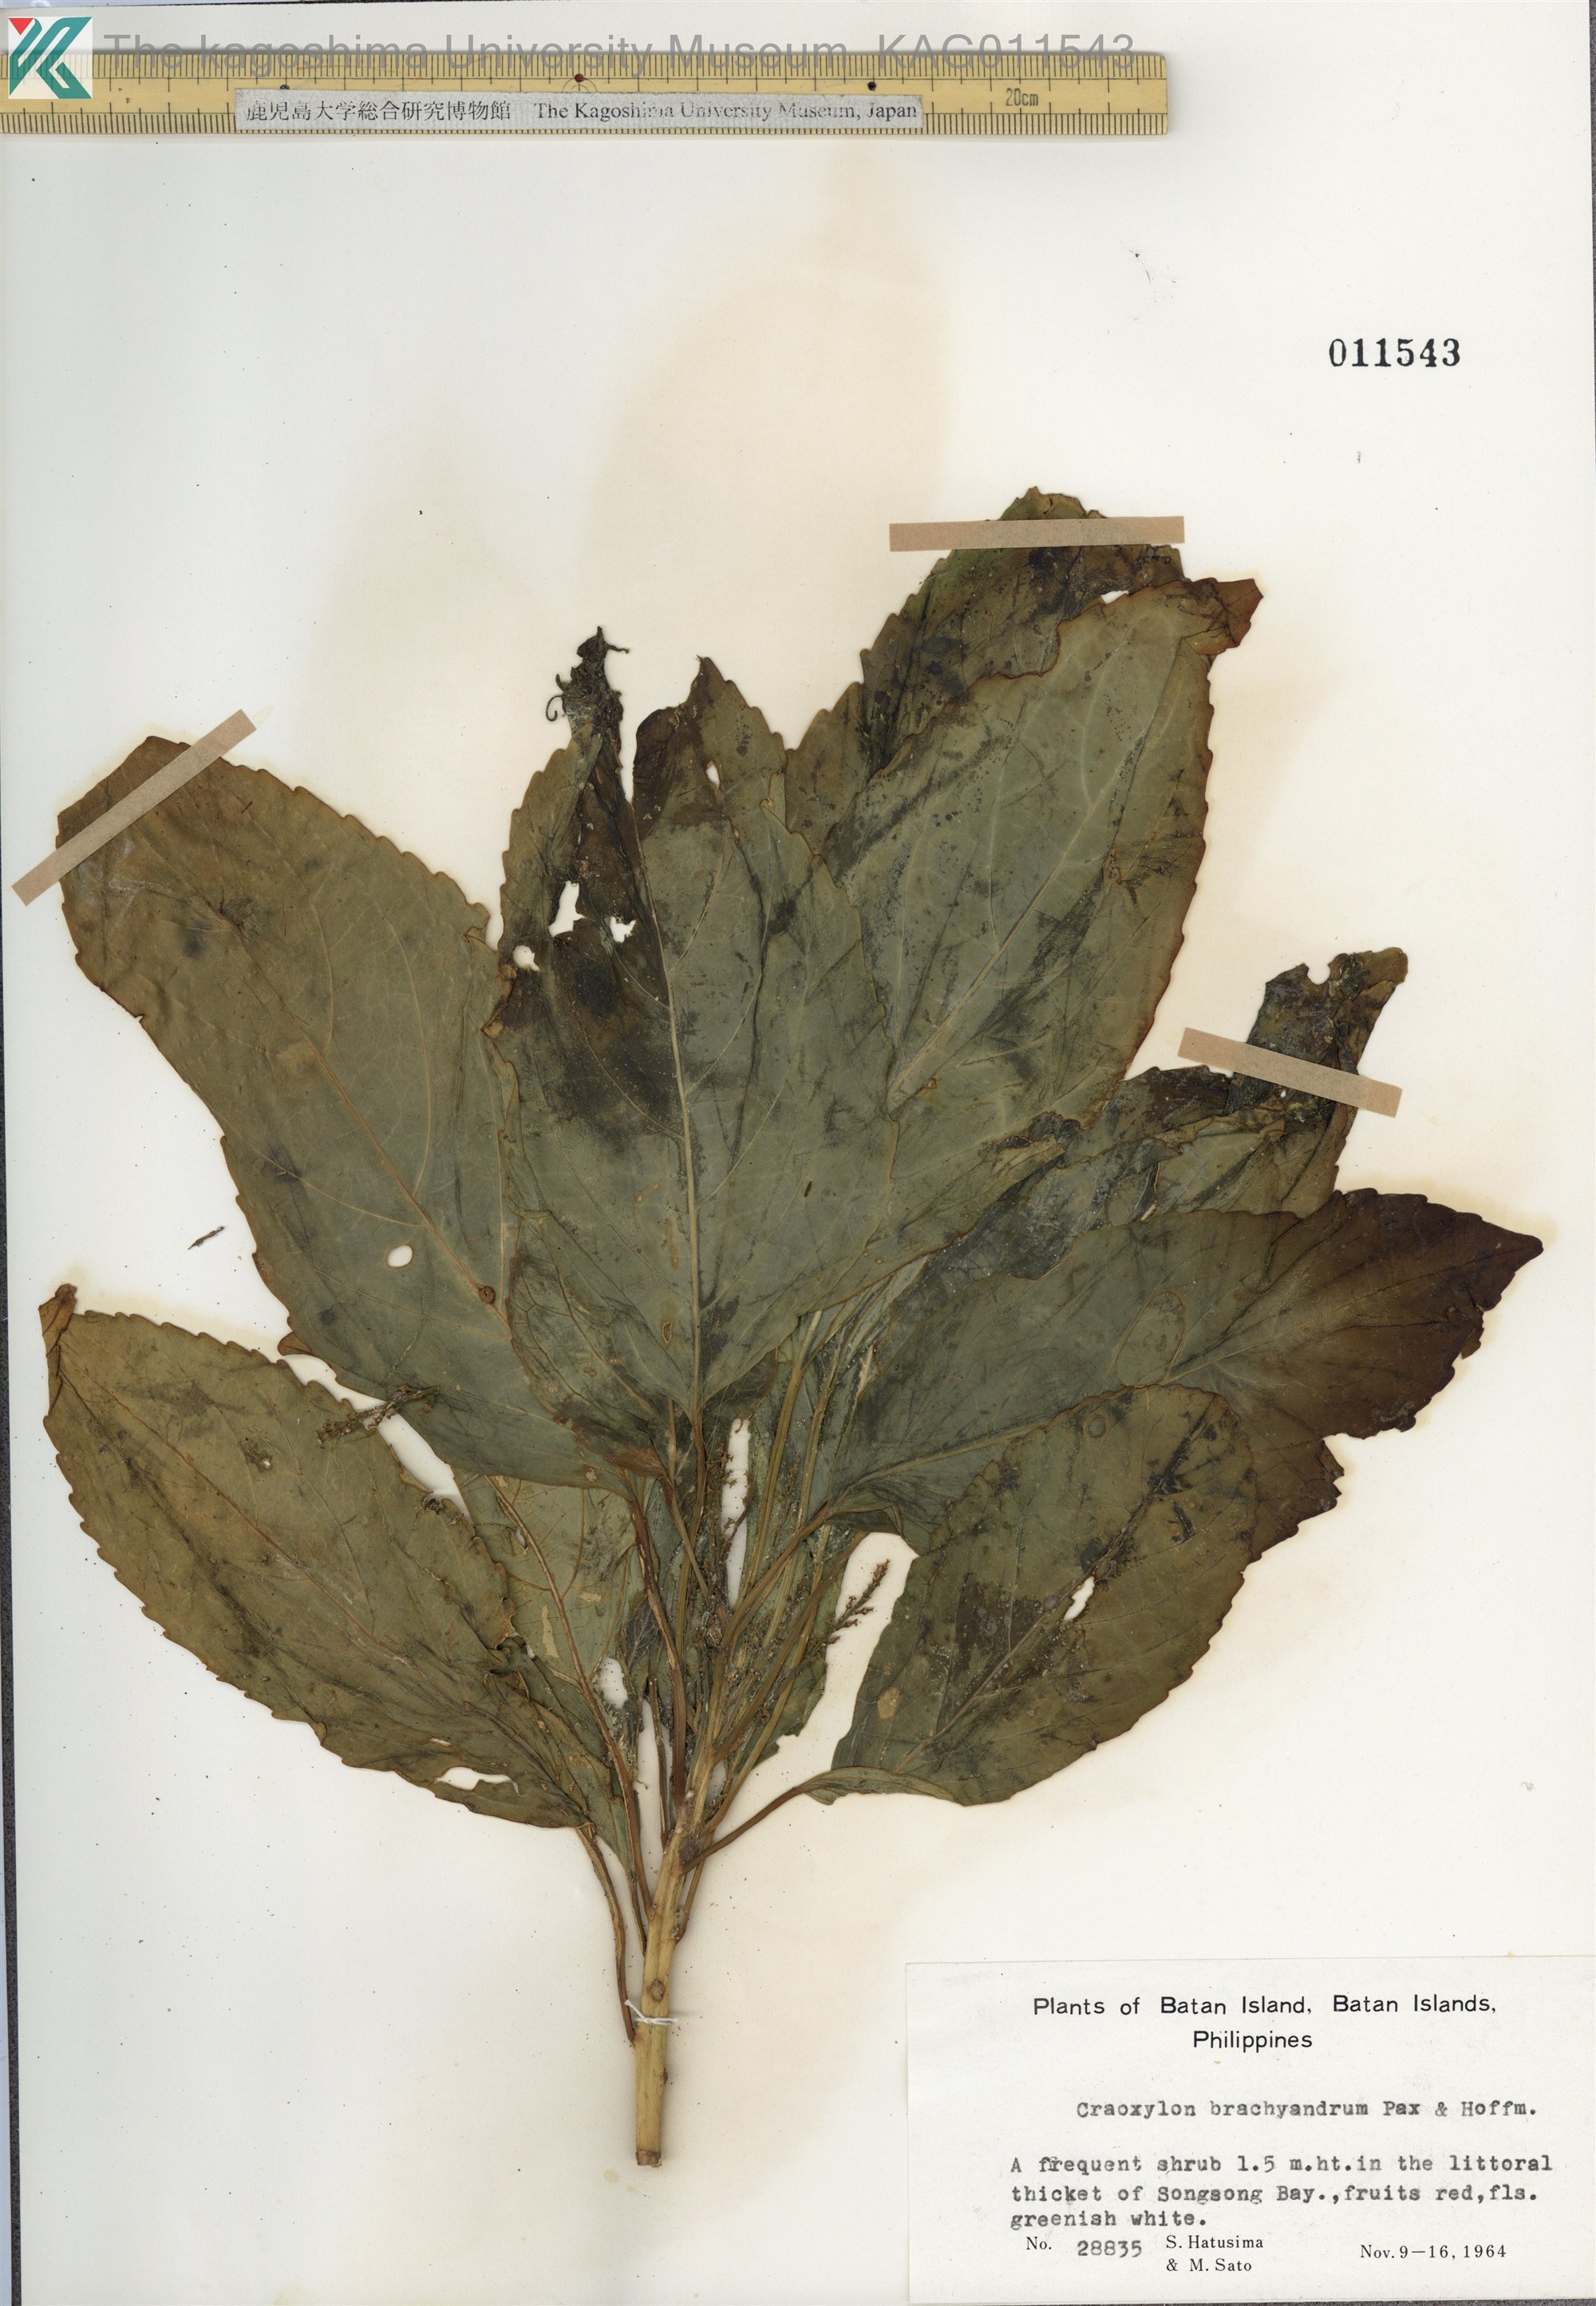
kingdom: Plantae
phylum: Tracheophyta
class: Magnoliopsida
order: Malpighiales
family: Euphorbiaceae
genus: Claoxylon
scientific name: Claoxylon brachyandrum
